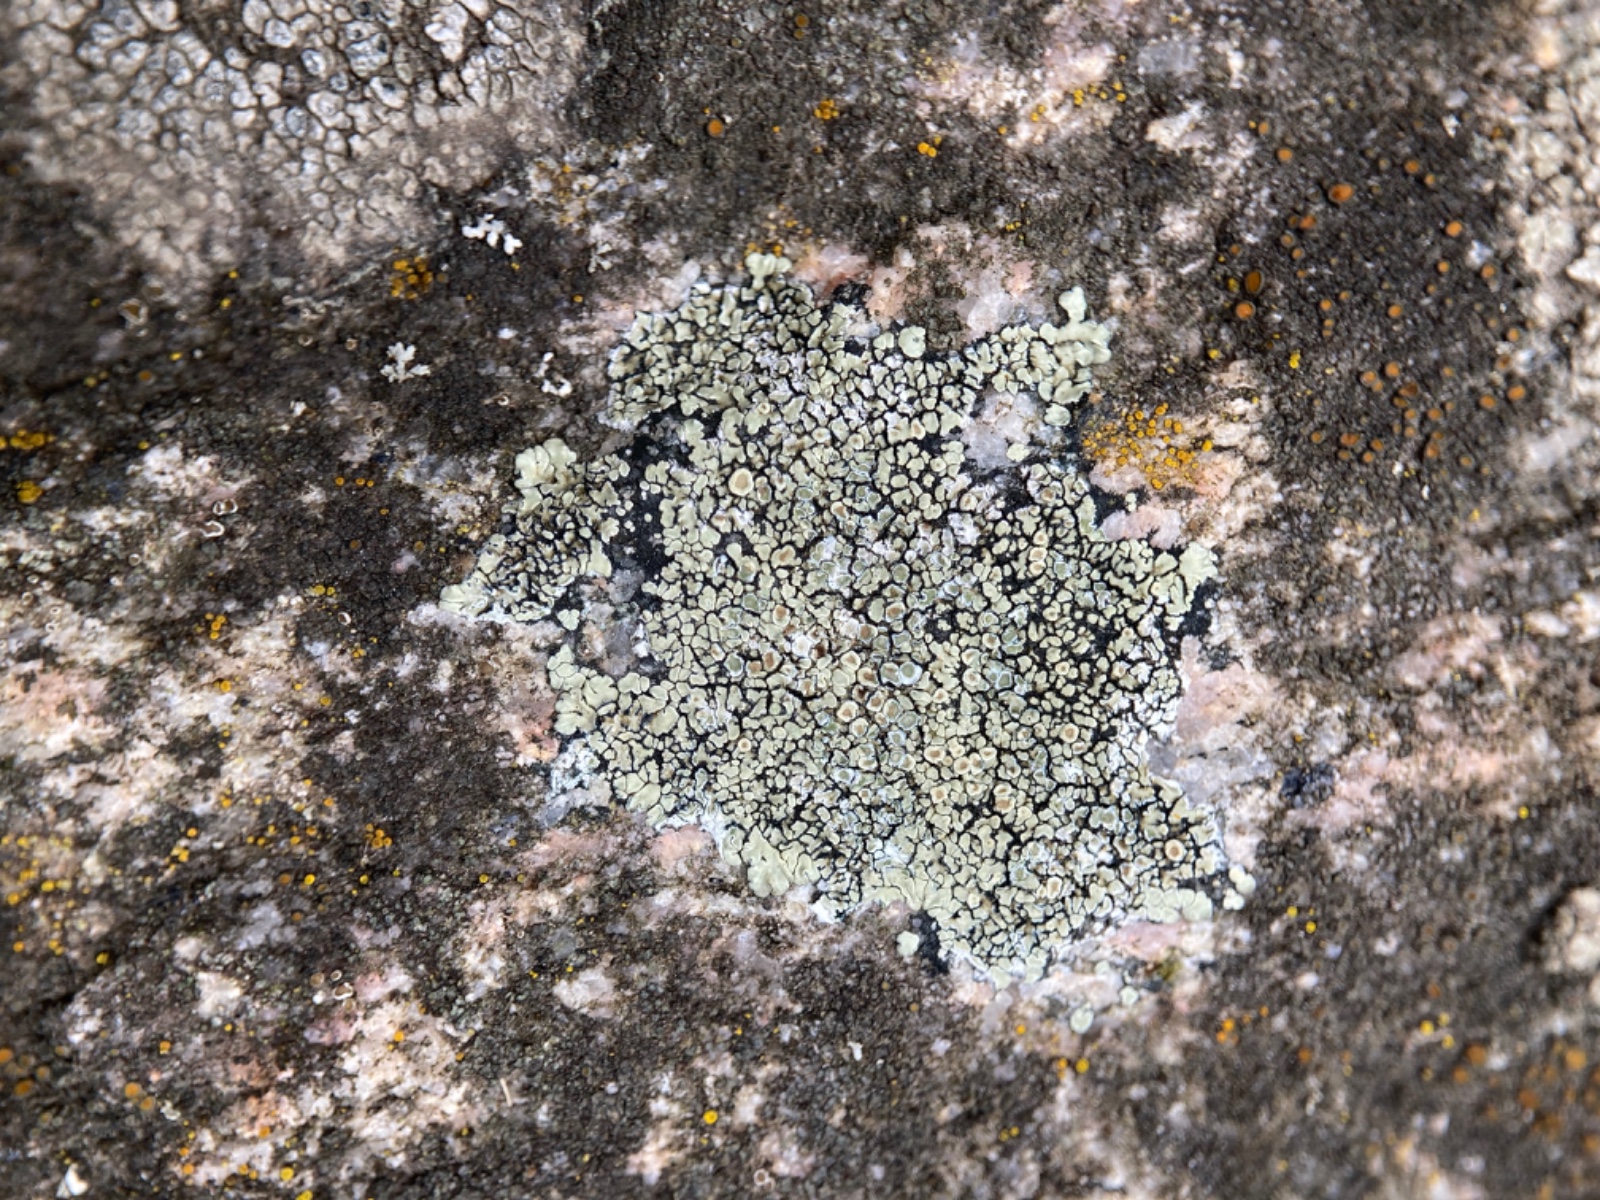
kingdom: Fungi
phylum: Ascomycota
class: Lecanoromycetes
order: Lecanorales
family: Lecanoraceae
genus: Protoparmeliopsis
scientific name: Protoparmeliopsis muralis
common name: randfliget kantskivelav
